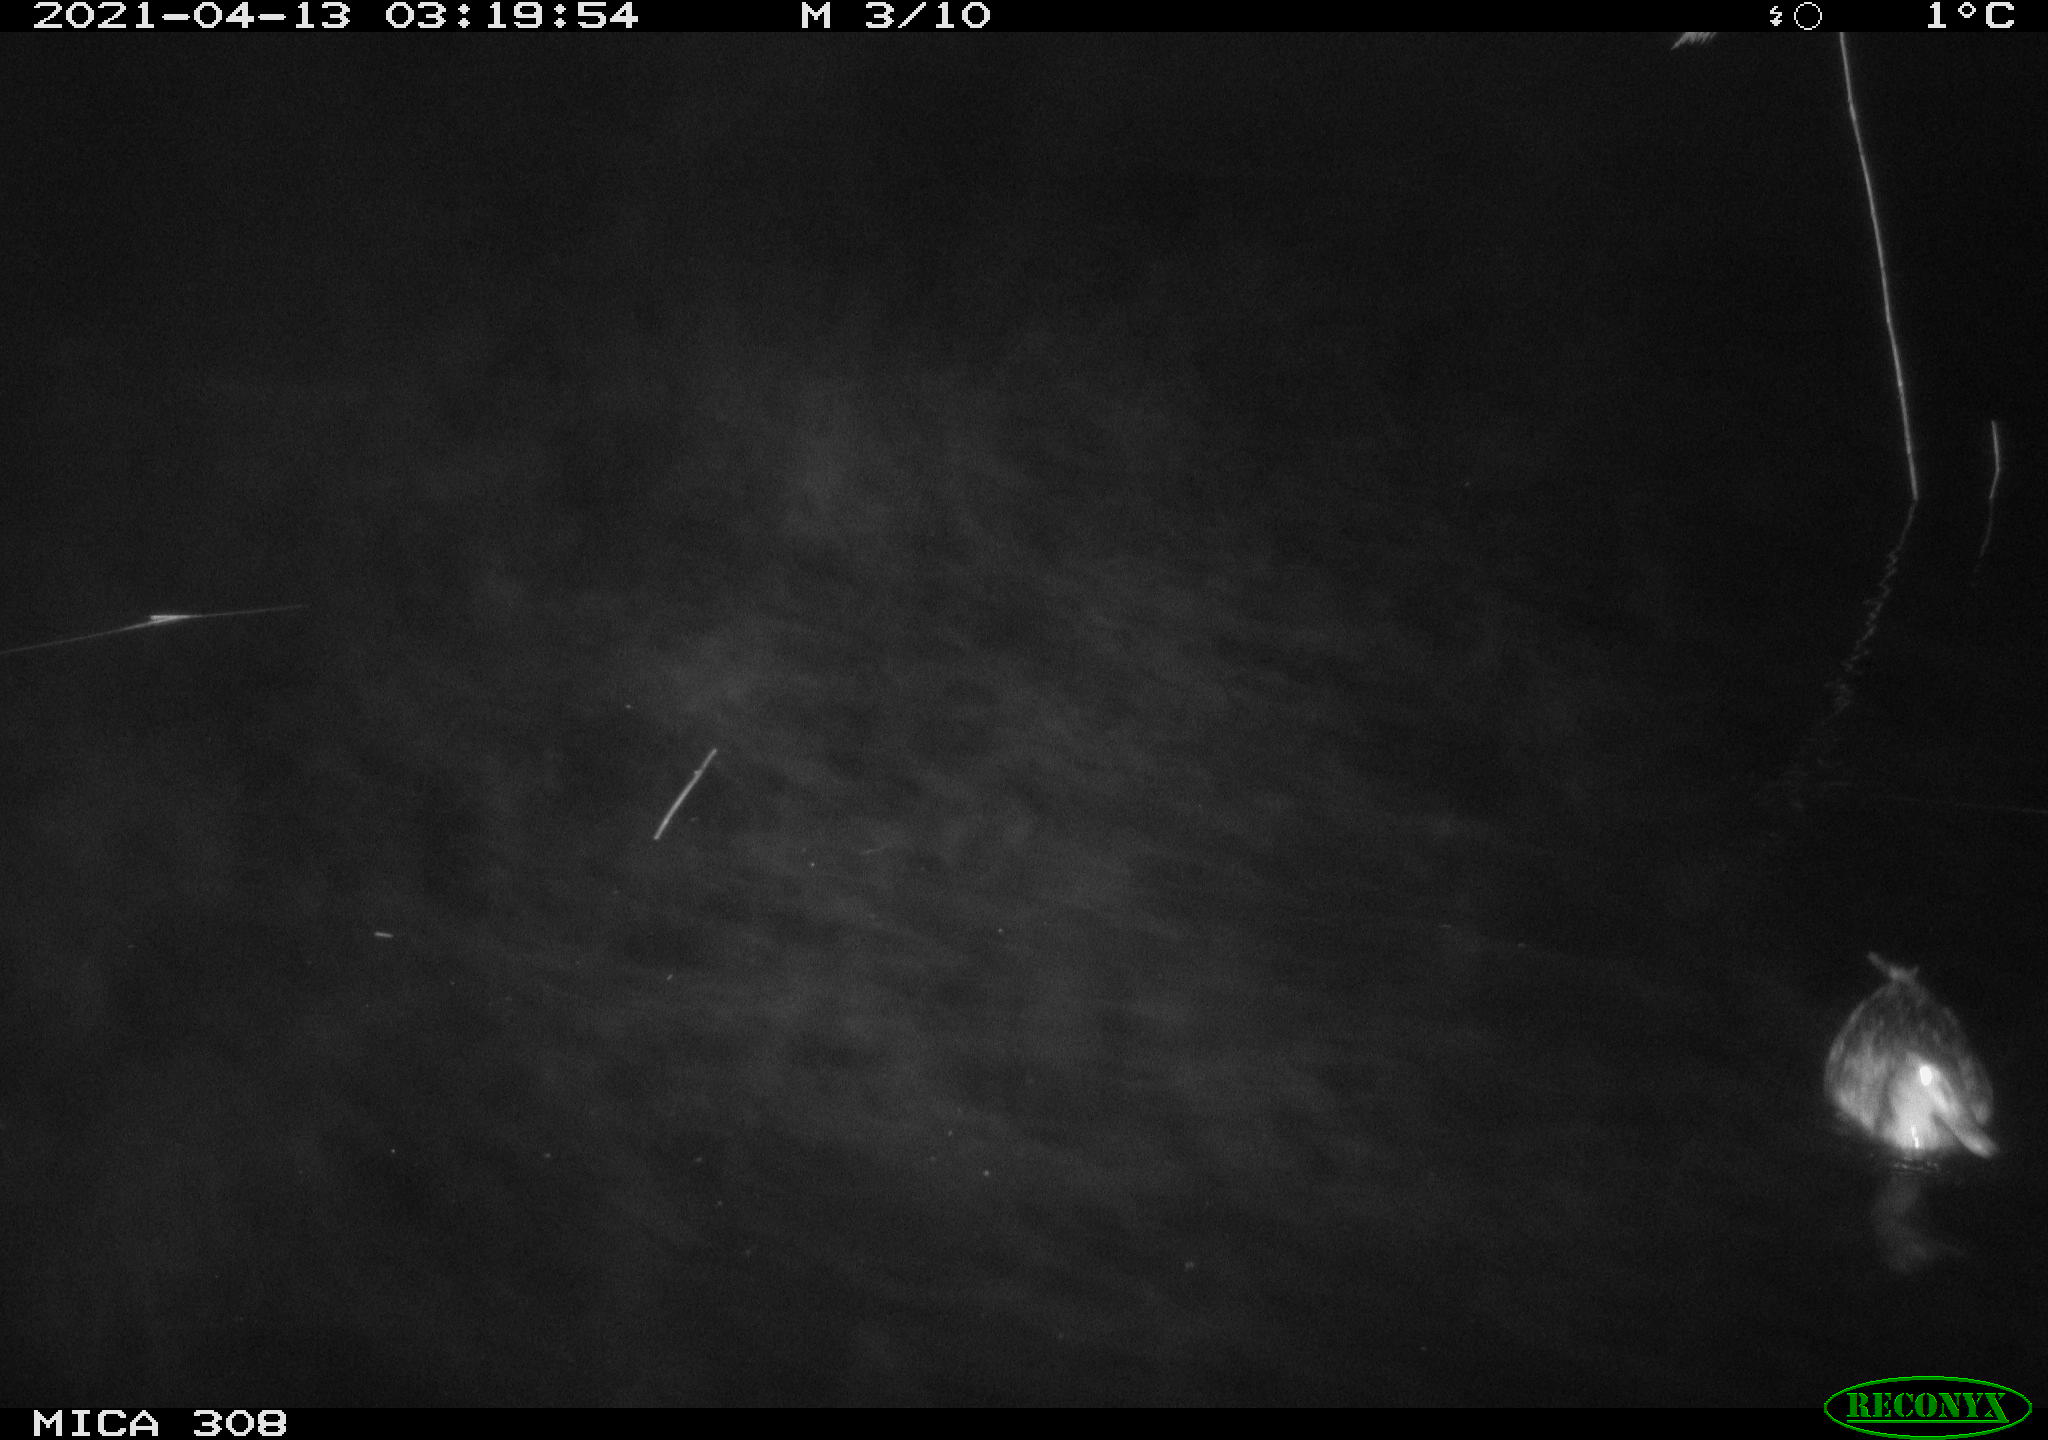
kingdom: Animalia
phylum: Chordata
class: Aves
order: Anseriformes
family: Anatidae
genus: Anas
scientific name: Anas platyrhynchos
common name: Mallard
